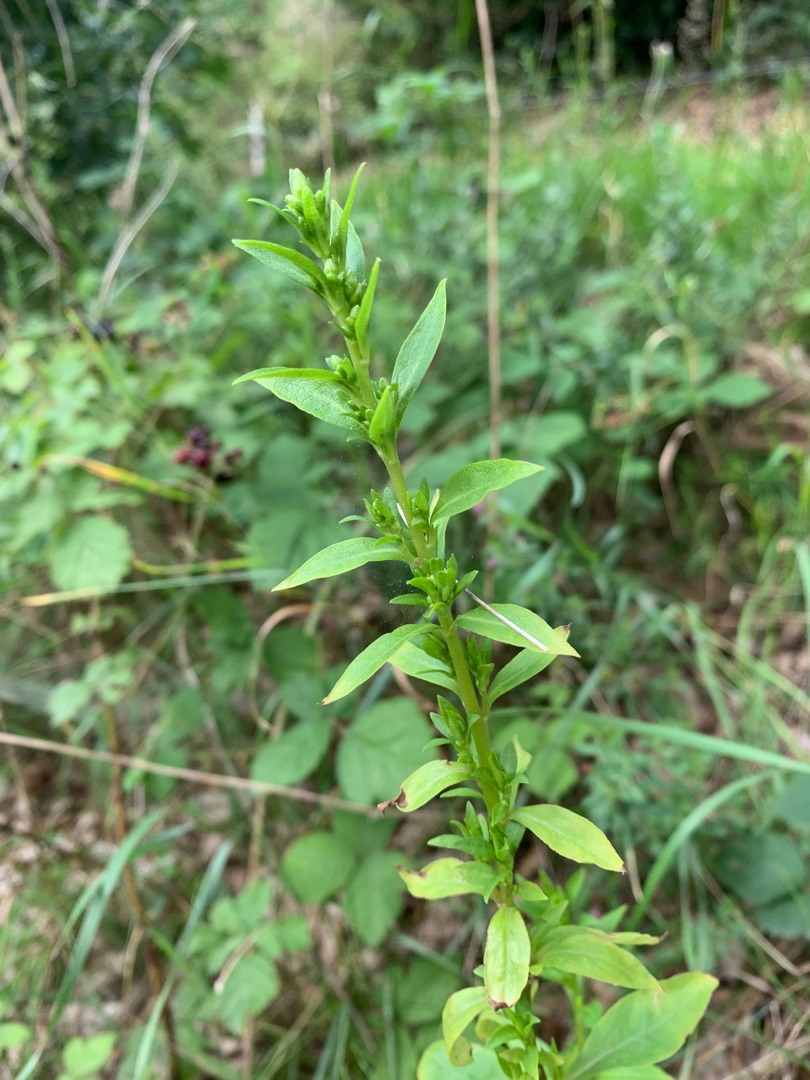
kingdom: Plantae
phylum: Tracheophyta
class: Magnoliopsida
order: Asterales
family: Asteraceae
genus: Solidago
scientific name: Solidago virgaurea
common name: Almindelig gyldenris
